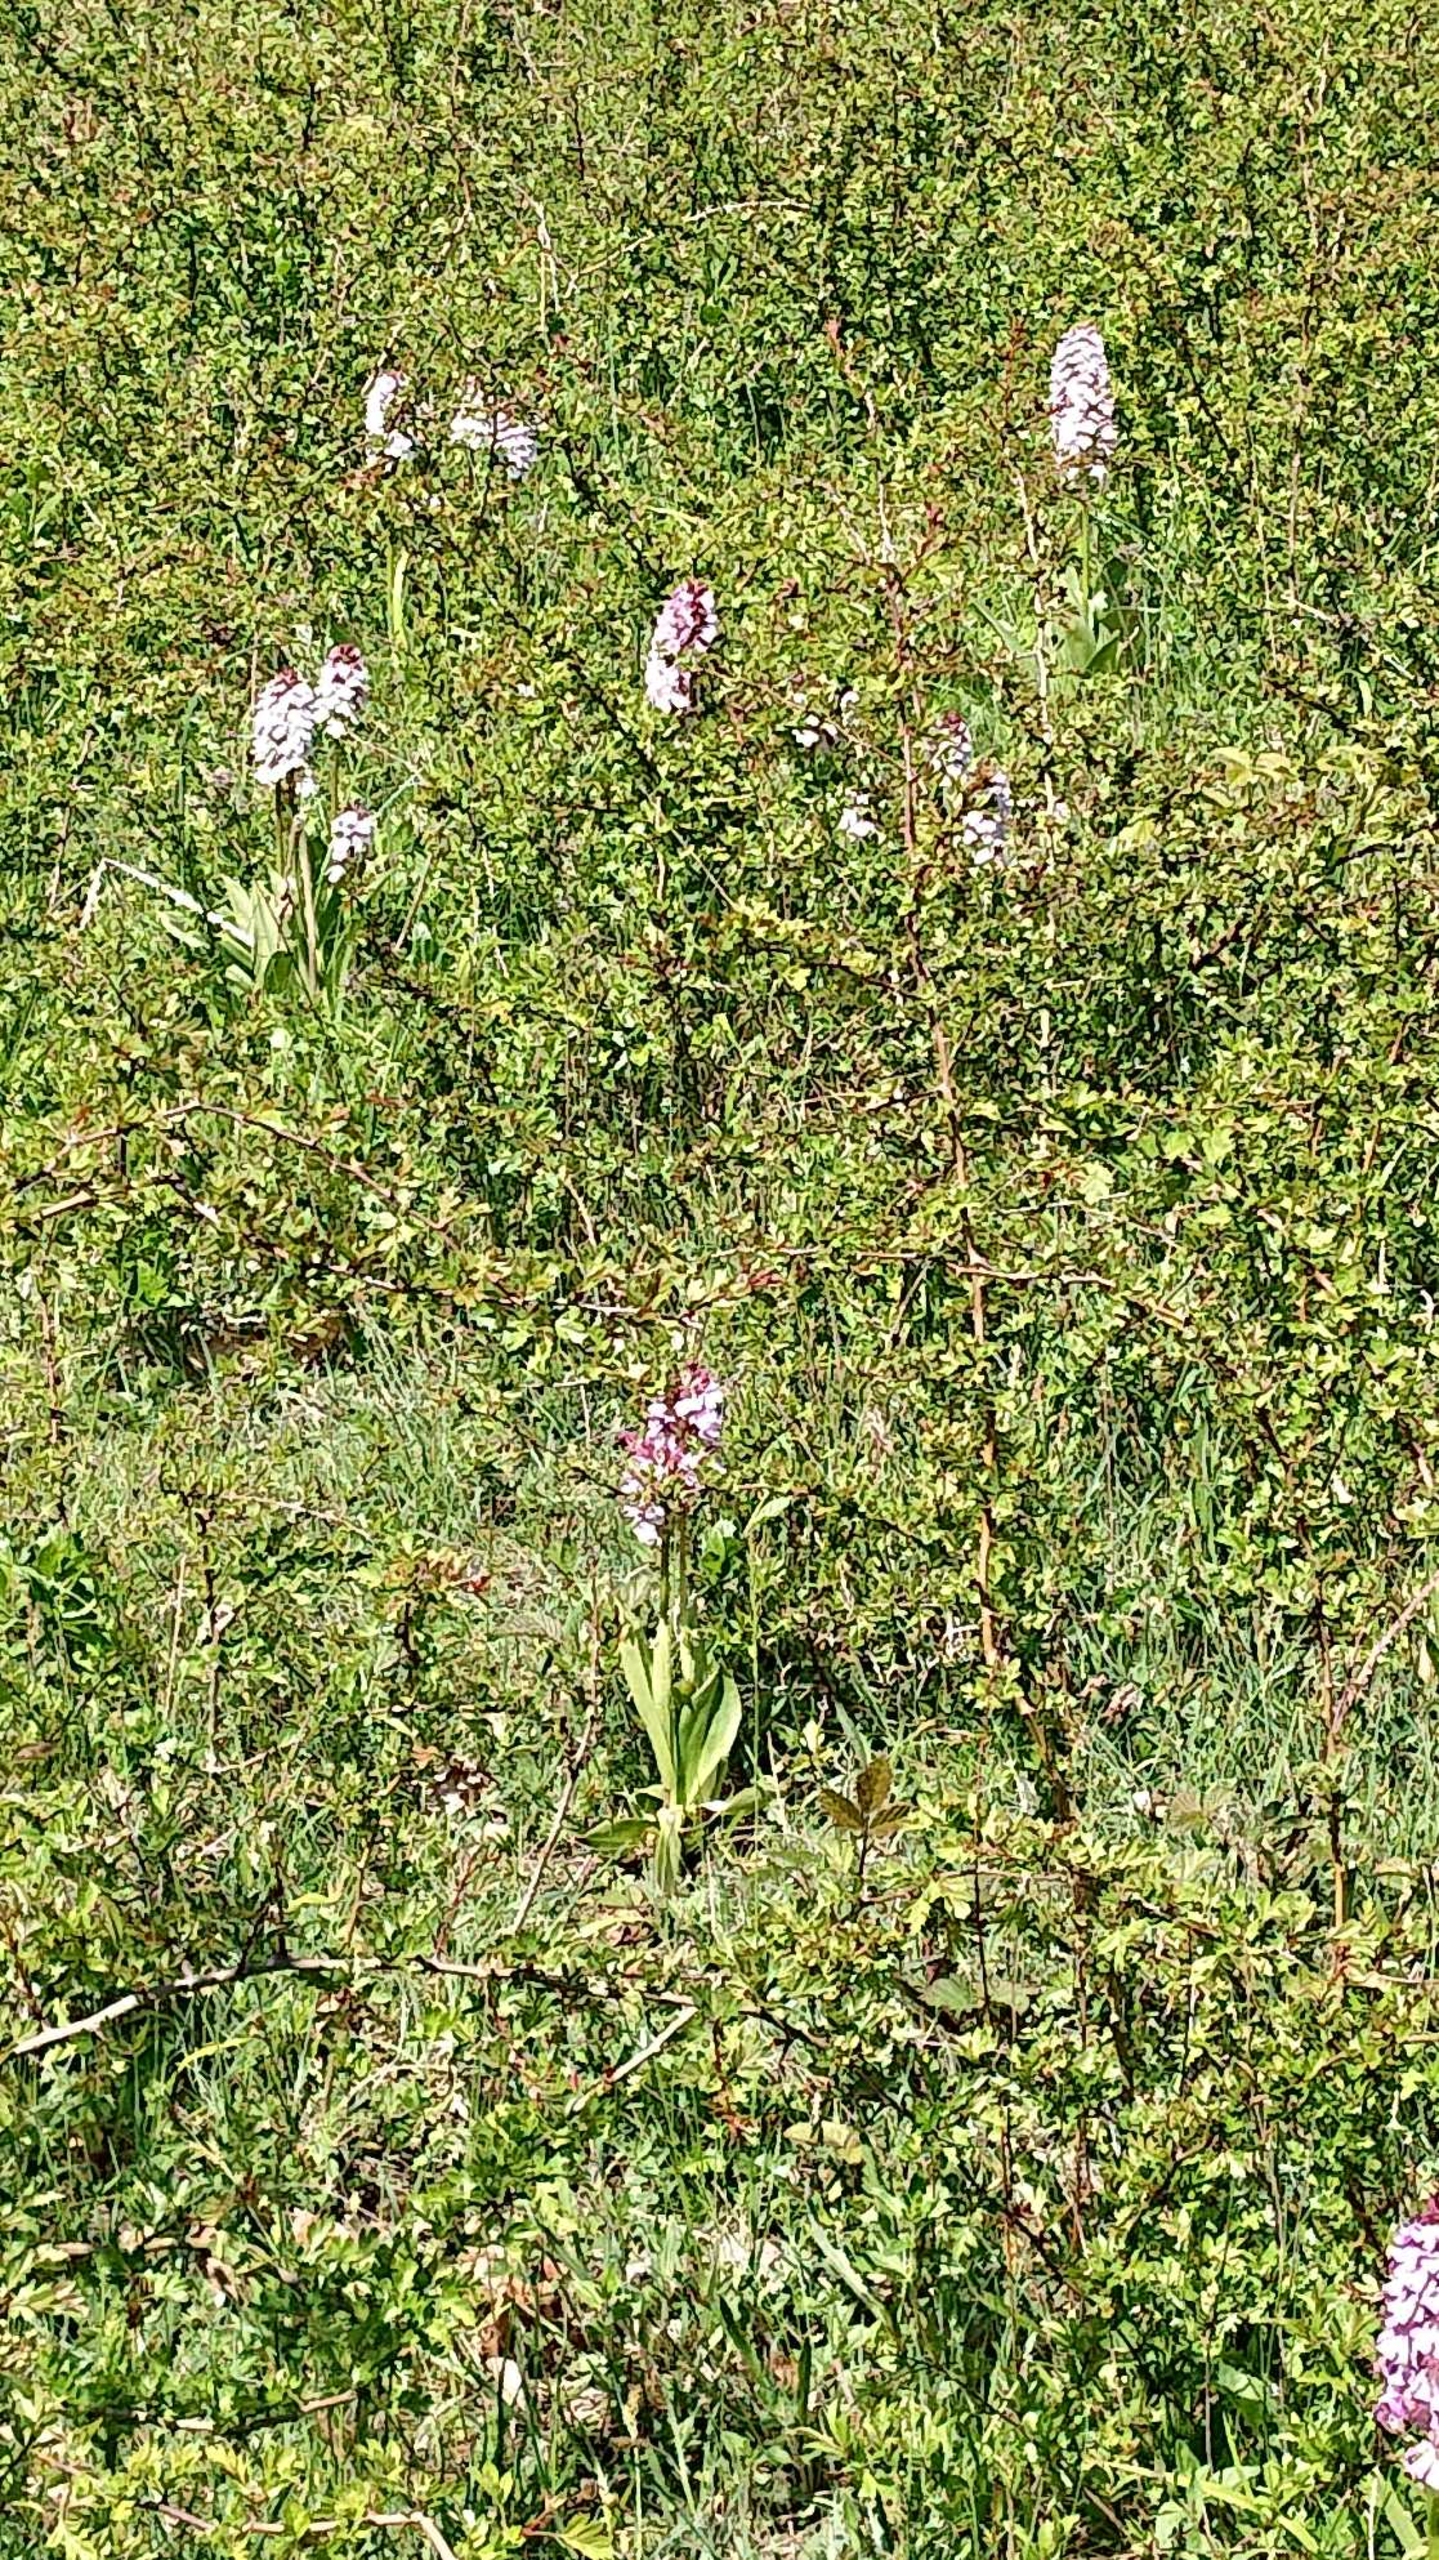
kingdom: Plantae
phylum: Tracheophyta
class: Liliopsida
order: Asparagales
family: Orchidaceae
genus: Orchis
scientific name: Orchis purpurea
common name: Stor gøgeurt
